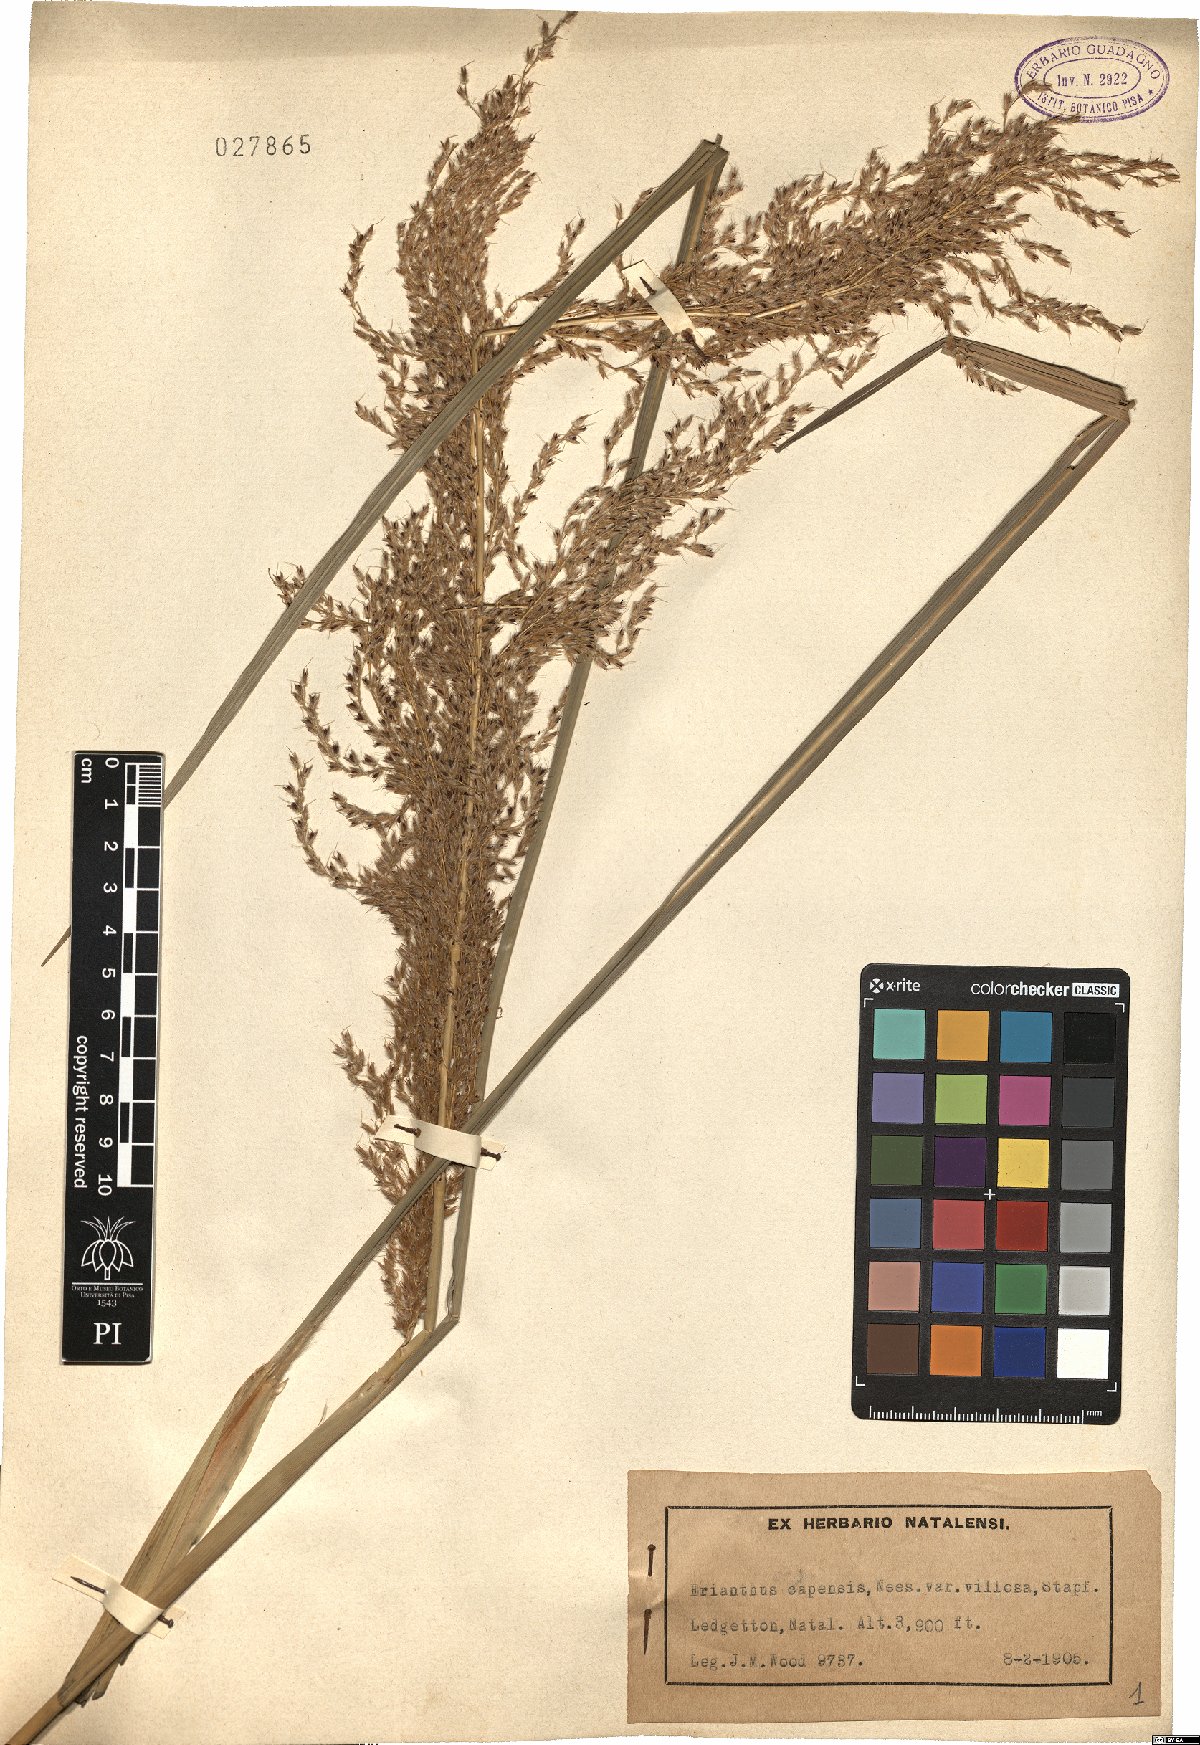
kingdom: Plantae
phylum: Tracheophyta
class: Liliopsida
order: Poales
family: Poaceae
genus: Miscanthus
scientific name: Miscanthus ecklonii
